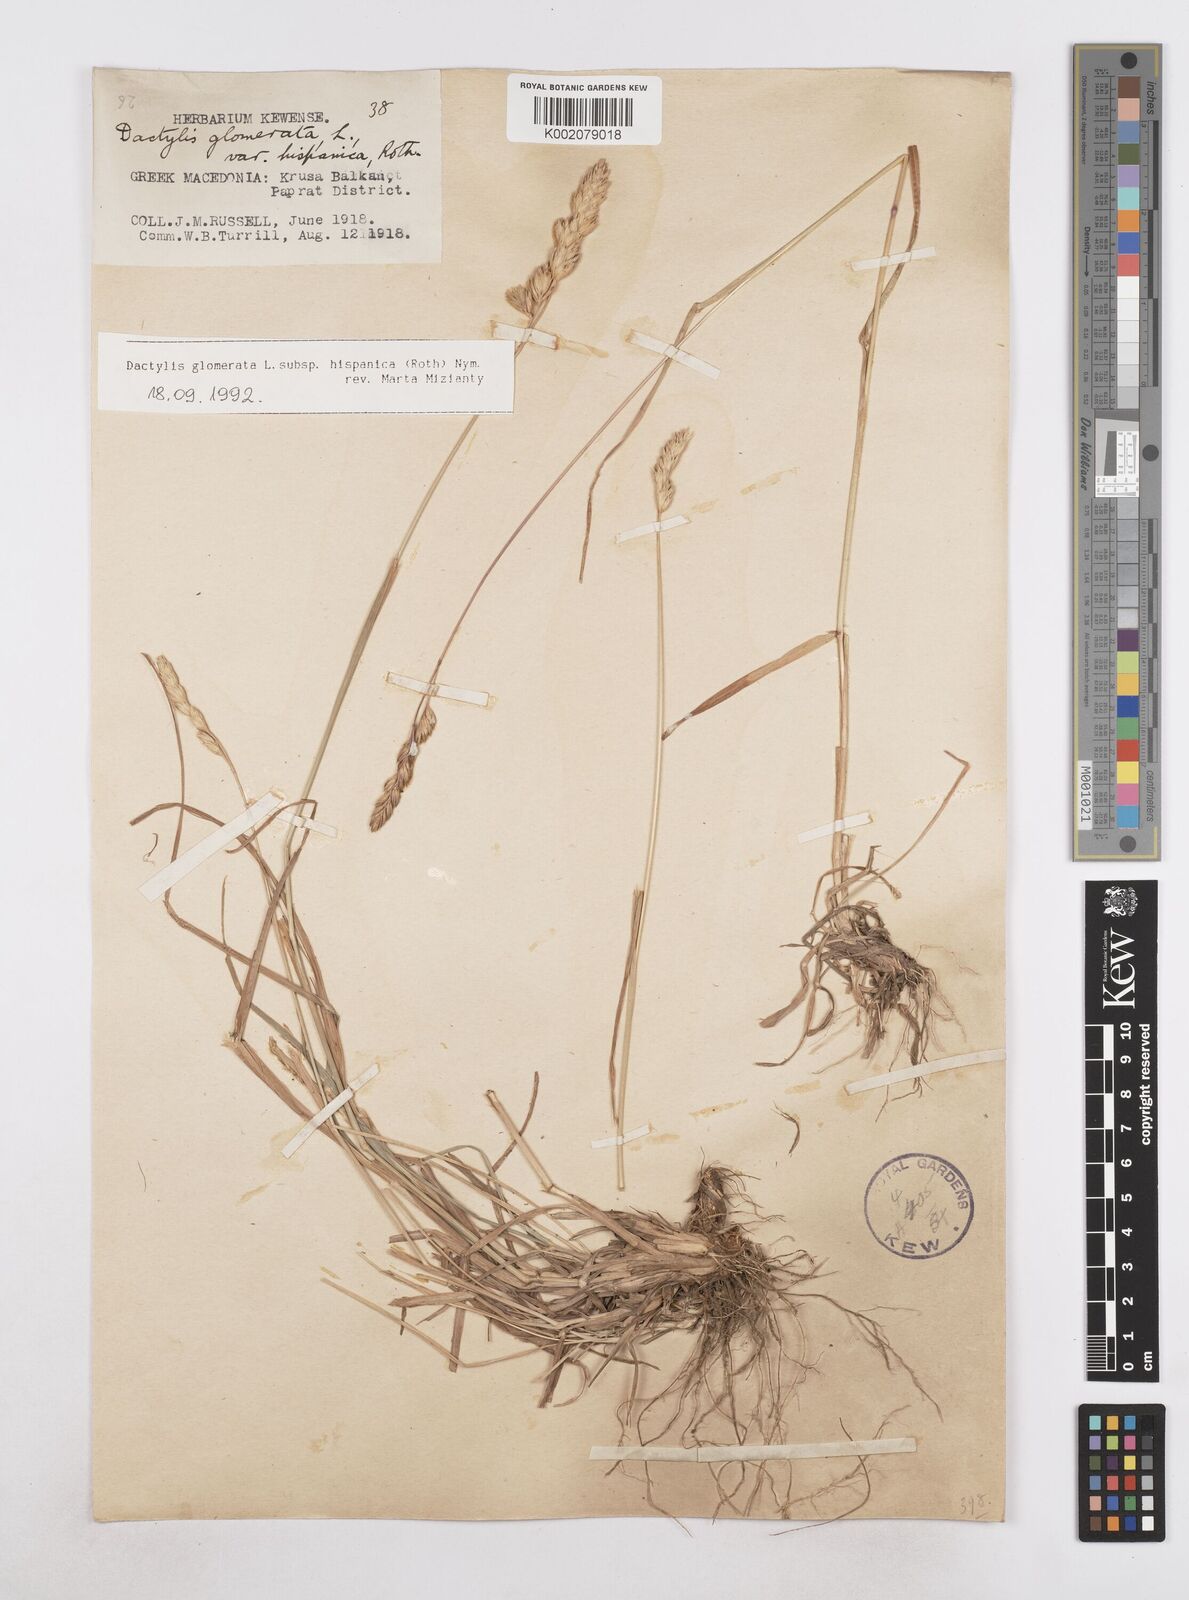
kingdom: Plantae
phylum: Tracheophyta
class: Liliopsida
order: Poales
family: Poaceae
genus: Dactylis
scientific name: Dactylis glomerata
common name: Orchardgrass
